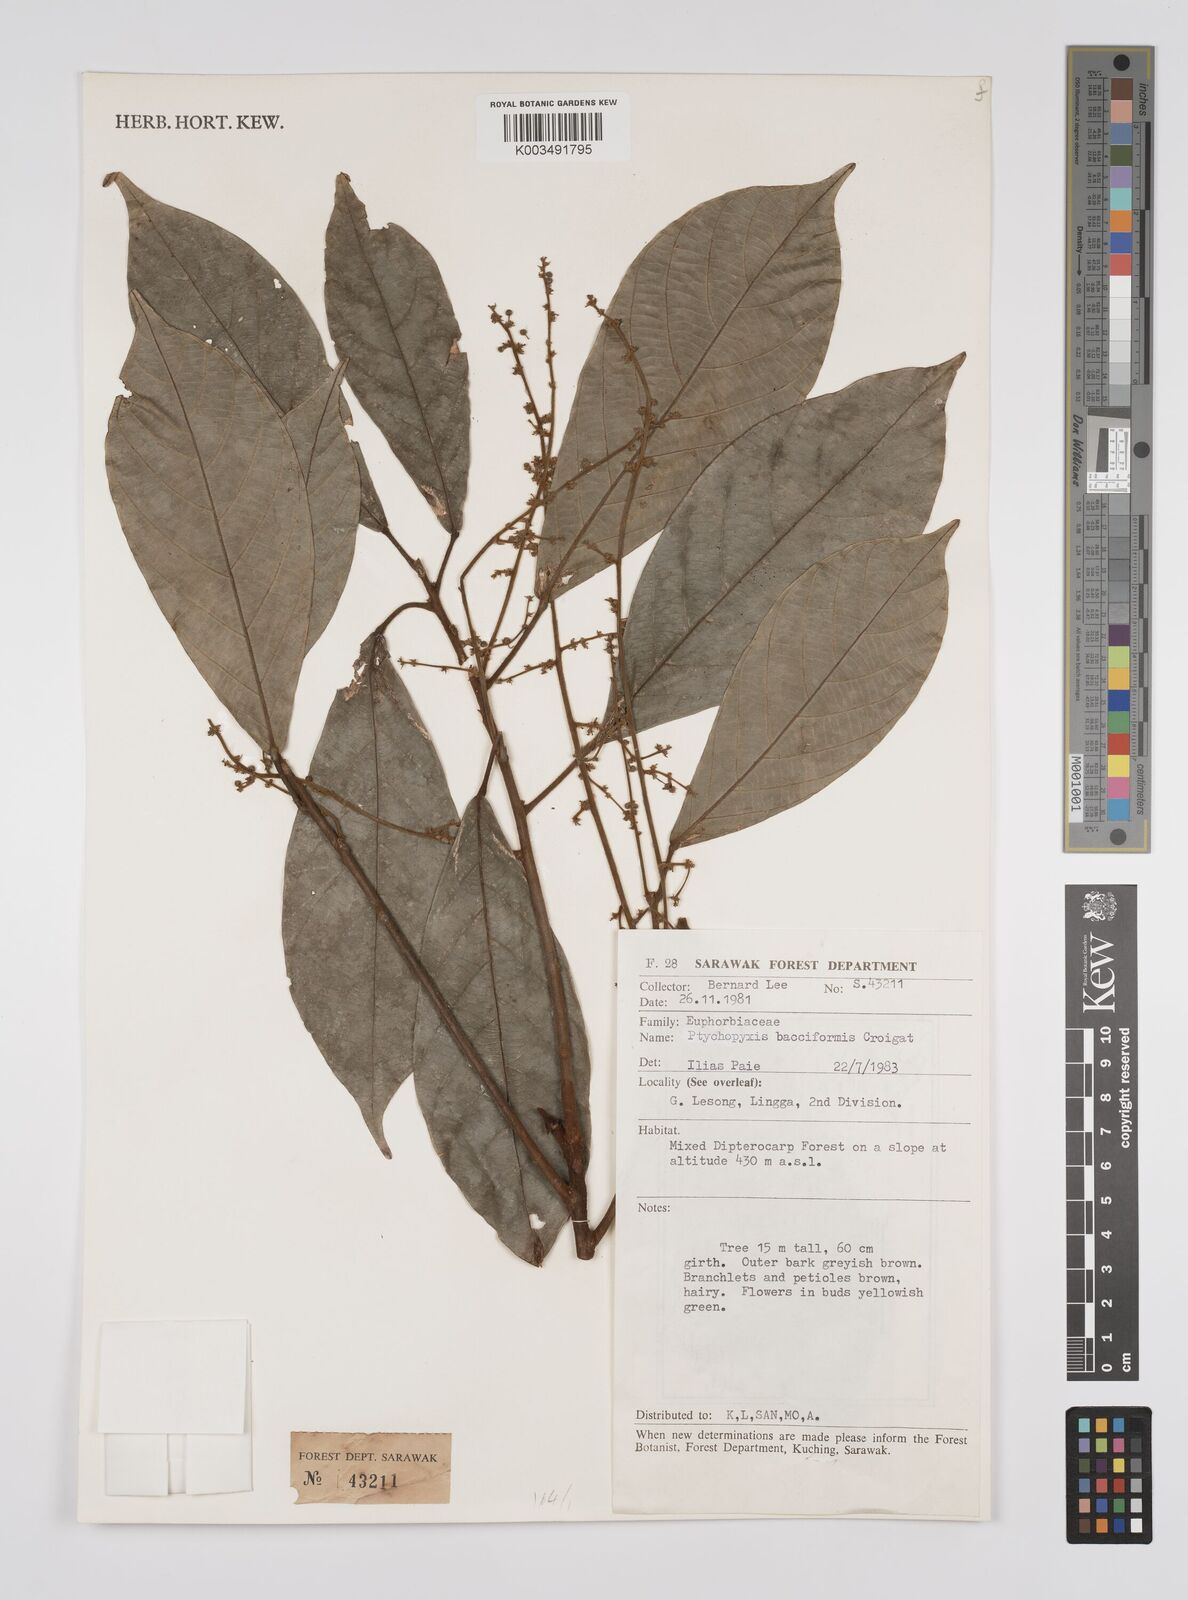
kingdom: Plantae
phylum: Tracheophyta
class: Magnoliopsida
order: Malpighiales
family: Euphorbiaceae
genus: Ptychopyxis
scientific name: Ptychopyxis bacciformis
